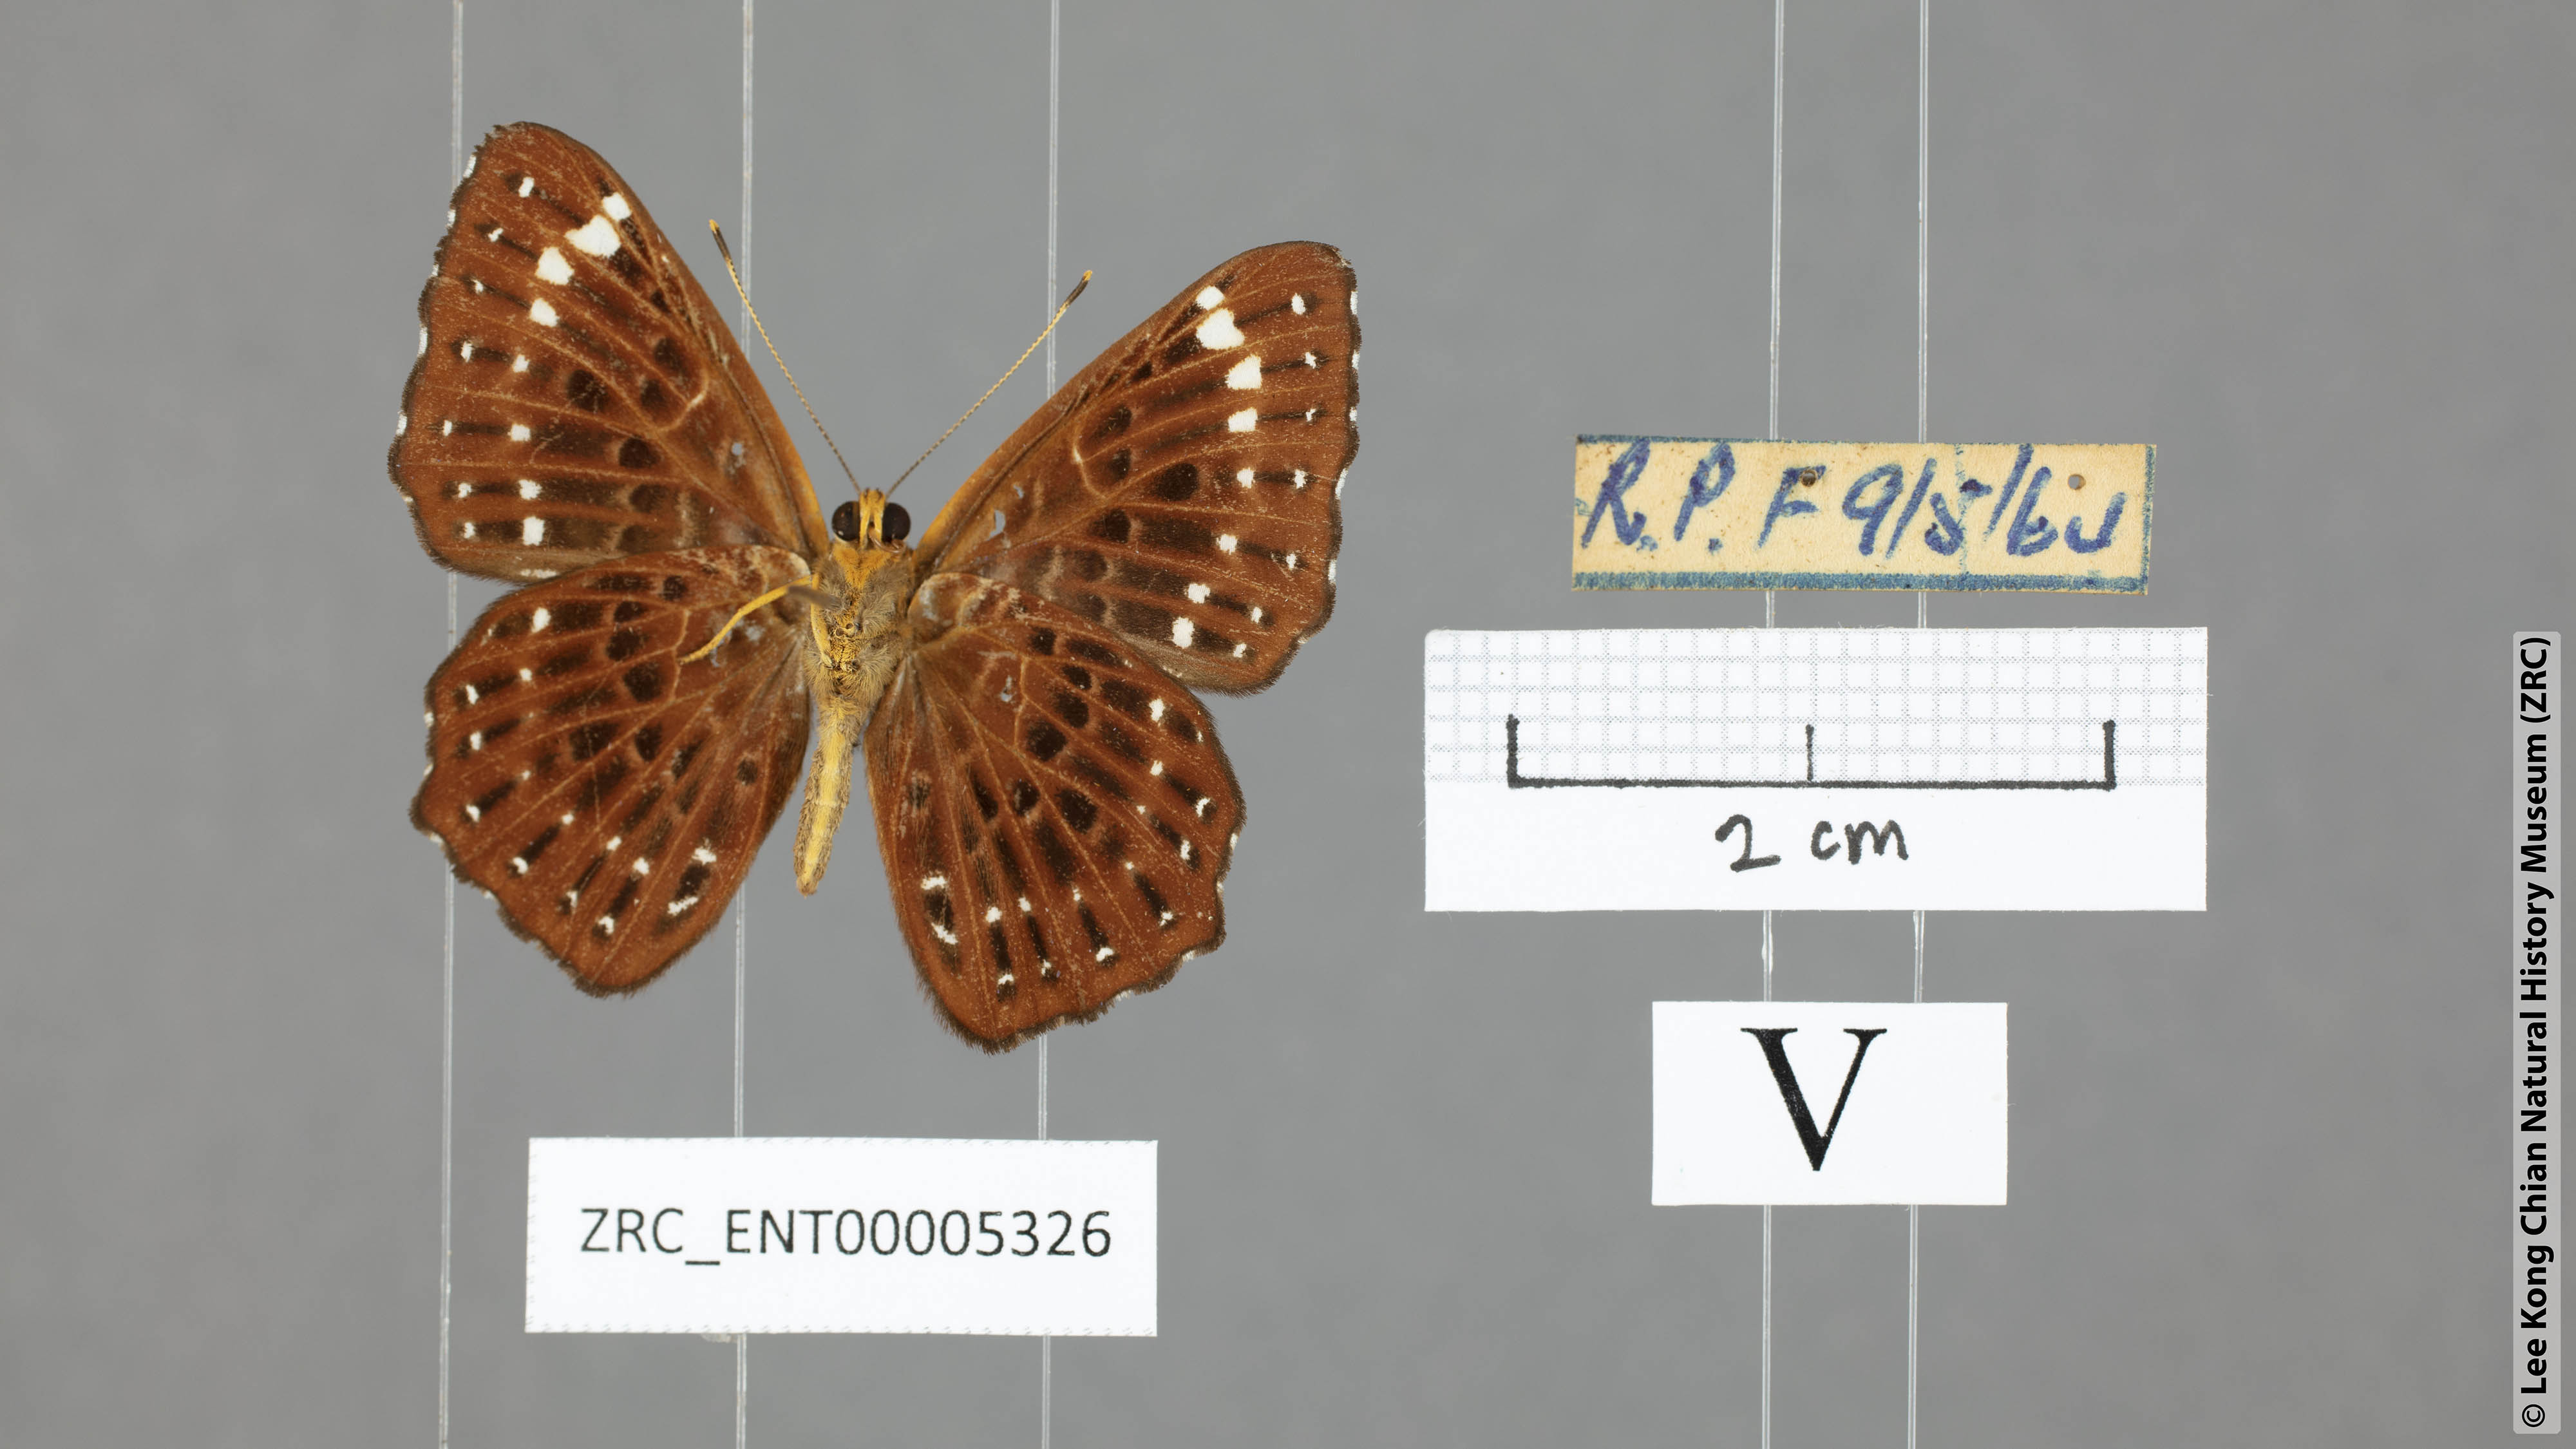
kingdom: Animalia
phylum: Arthropoda
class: Insecta
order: Lepidoptera
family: Riodinidae
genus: Zemeros
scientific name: Zemeros flegyas
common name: Punchinello
